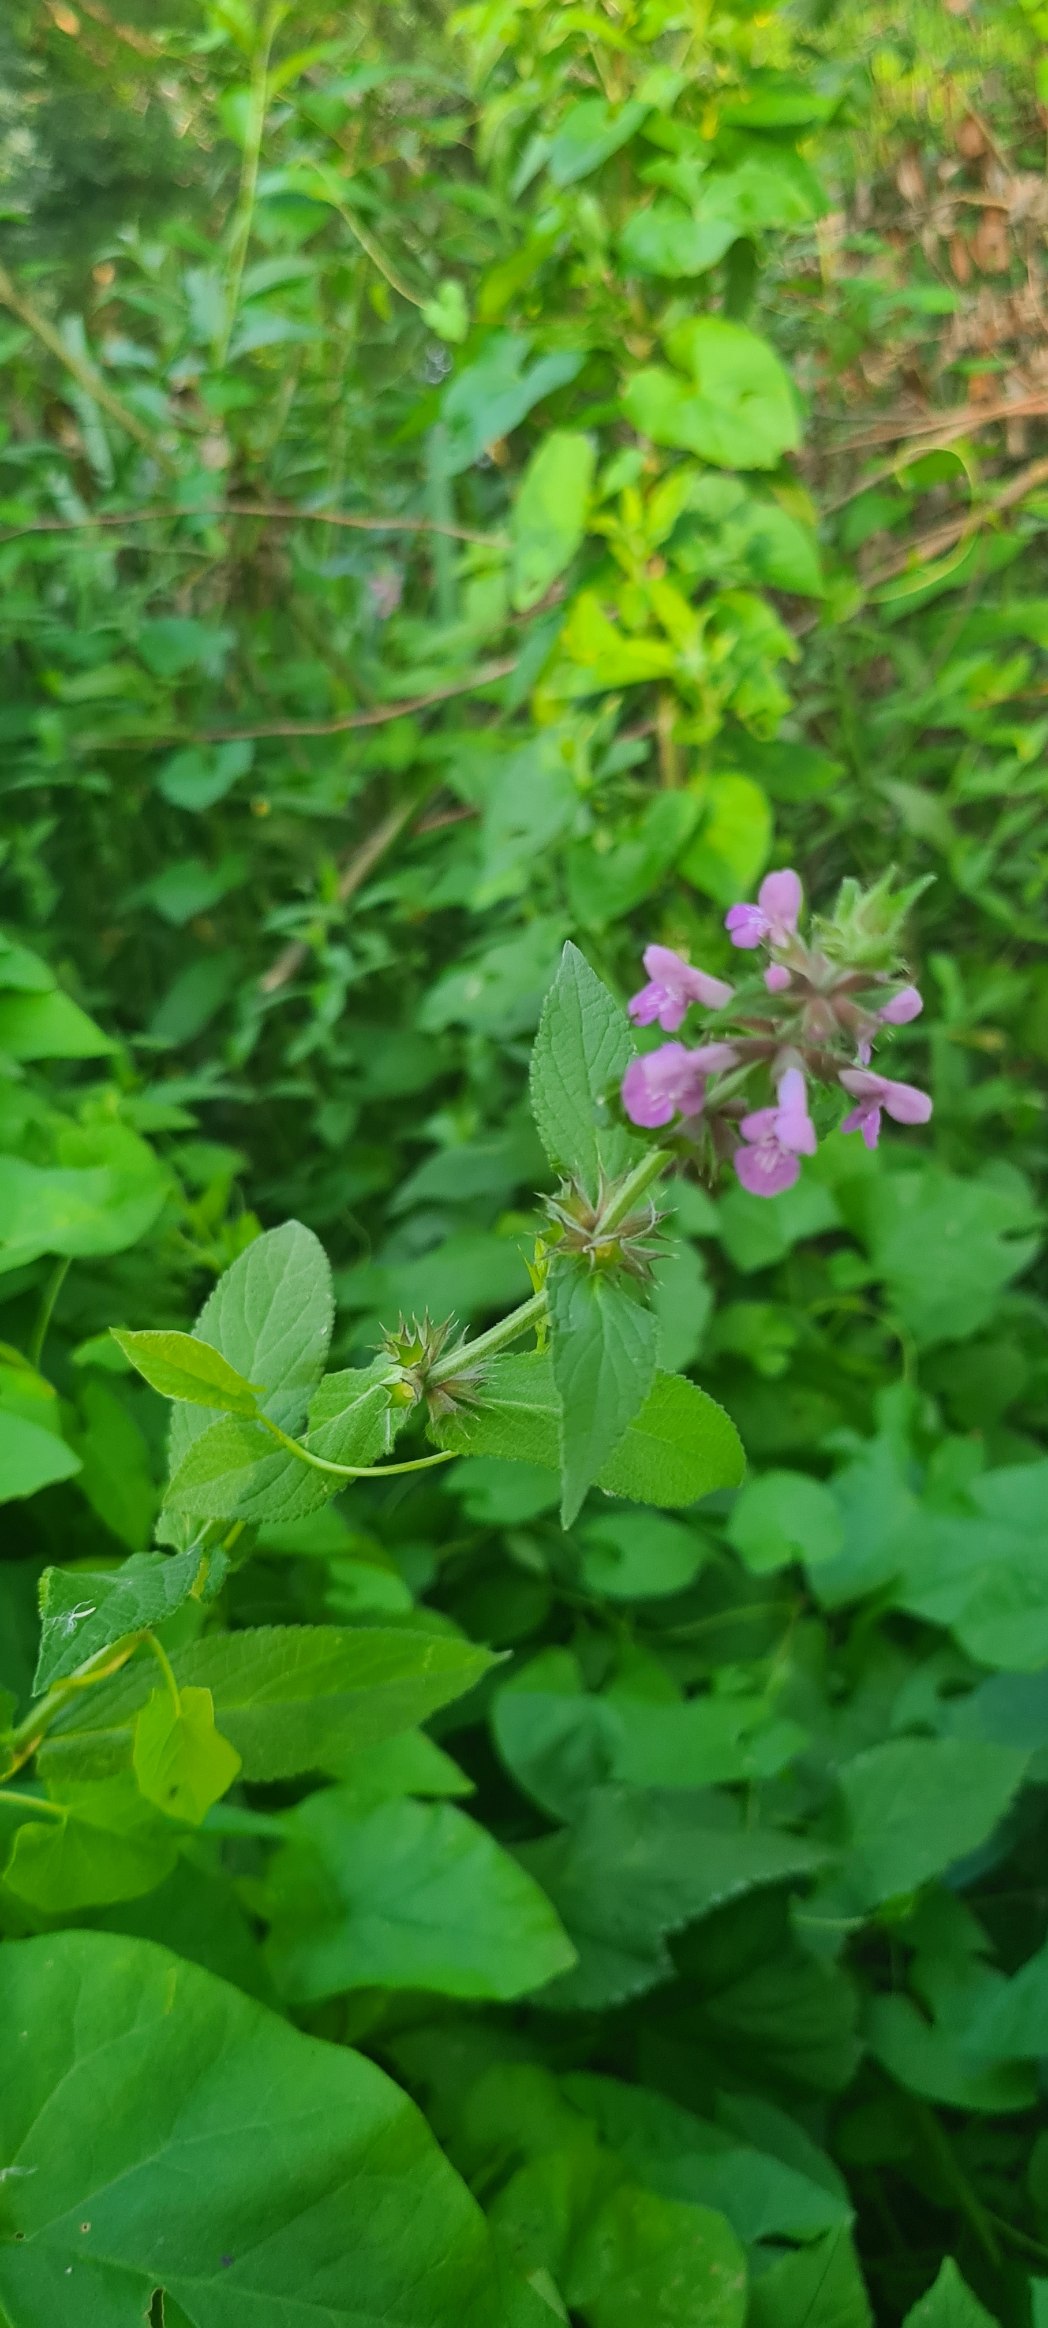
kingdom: Plantae
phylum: Tracheophyta
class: Magnoliopsida
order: Lamiales
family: Lamiaceae
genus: Stachys
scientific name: Stachys palustris
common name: Kær-galtetand
